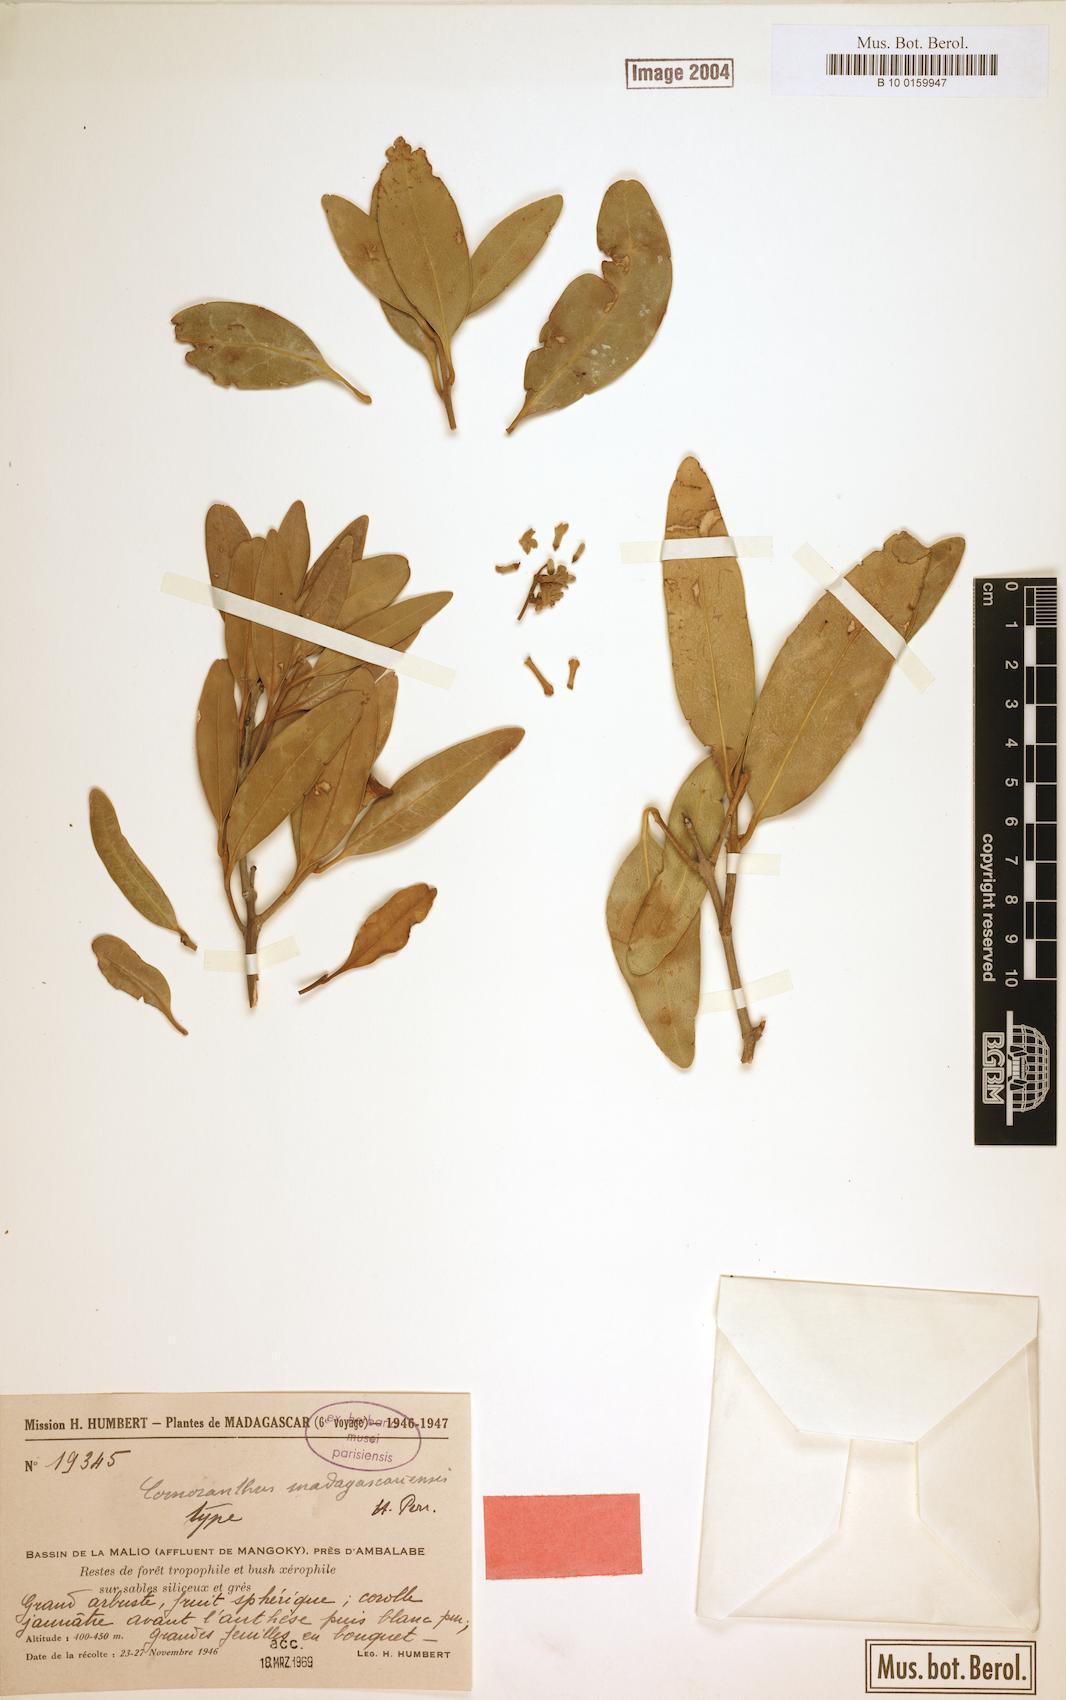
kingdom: Plantae
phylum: Tracheophyta
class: Magnoliopsida
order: Lamiales
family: Oleaceae
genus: Comoranthus
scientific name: Comoranthus
